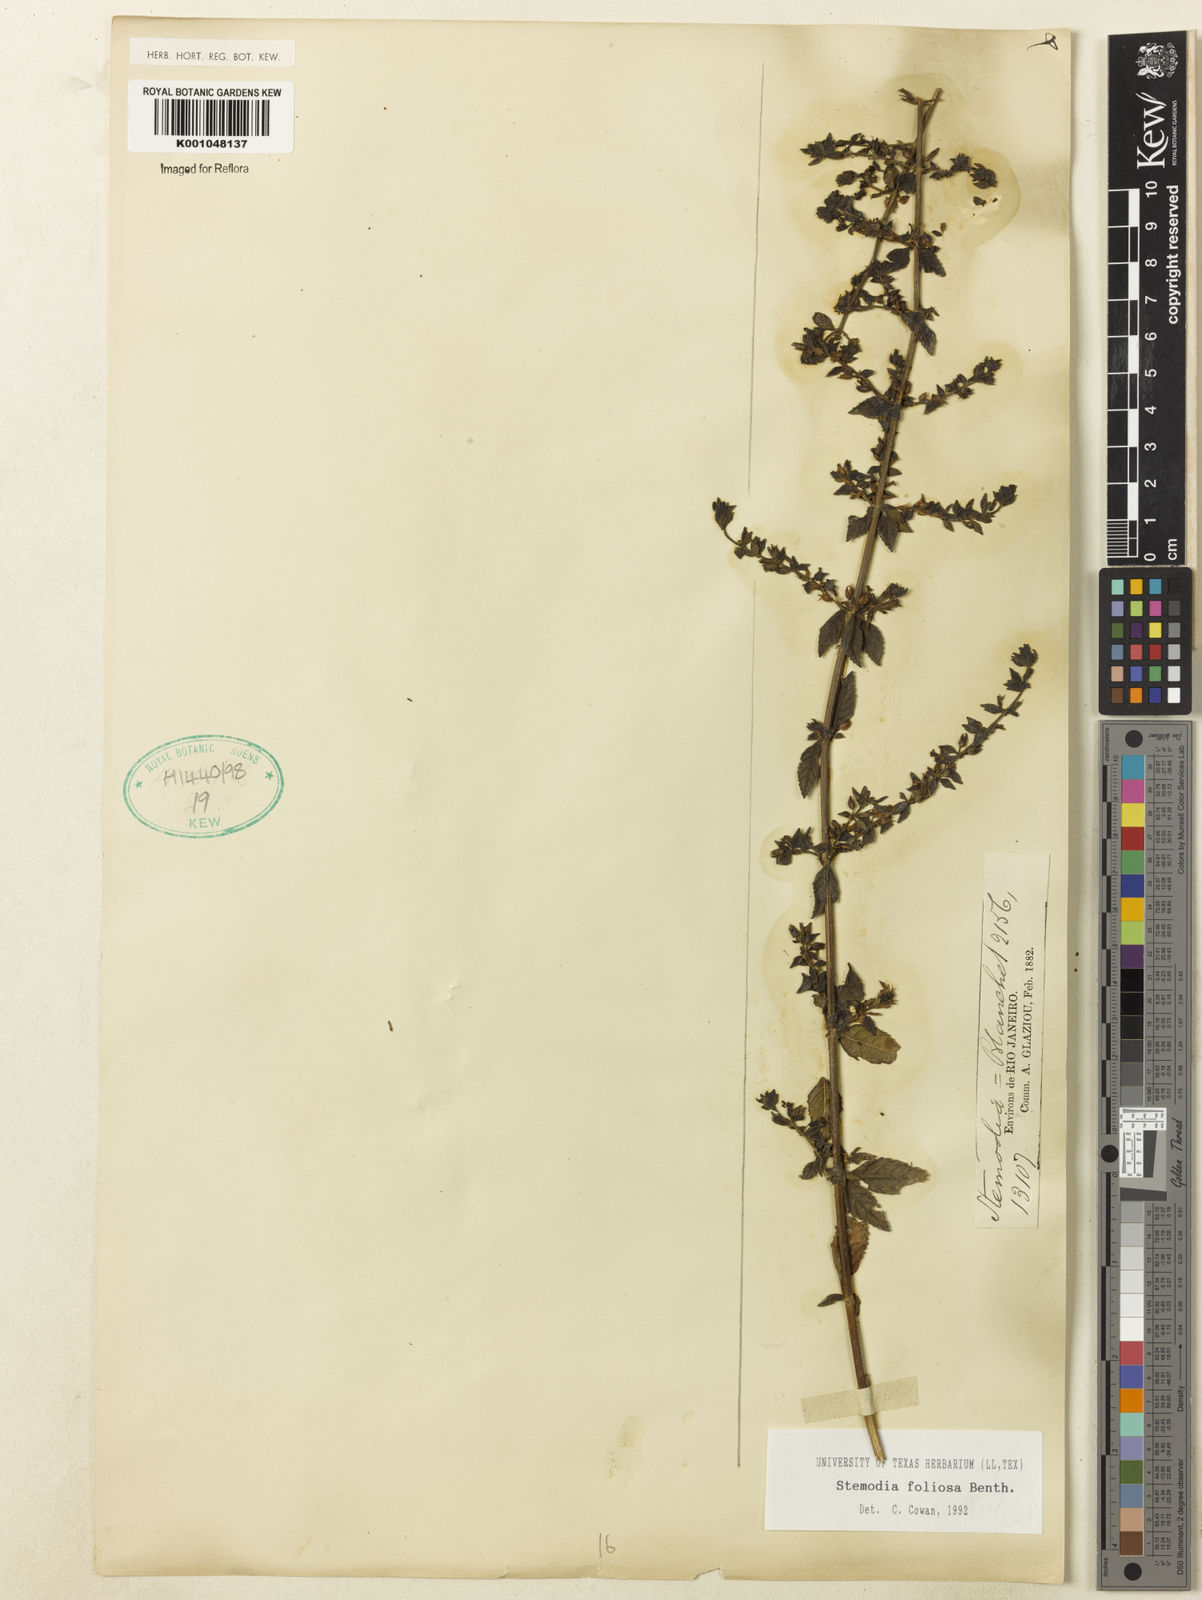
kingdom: Plantae
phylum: Tracheophyta
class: Magnoliopsida
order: Lamiales
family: Plantaginaceae
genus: Stemodia
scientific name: Stemodia foliosa
